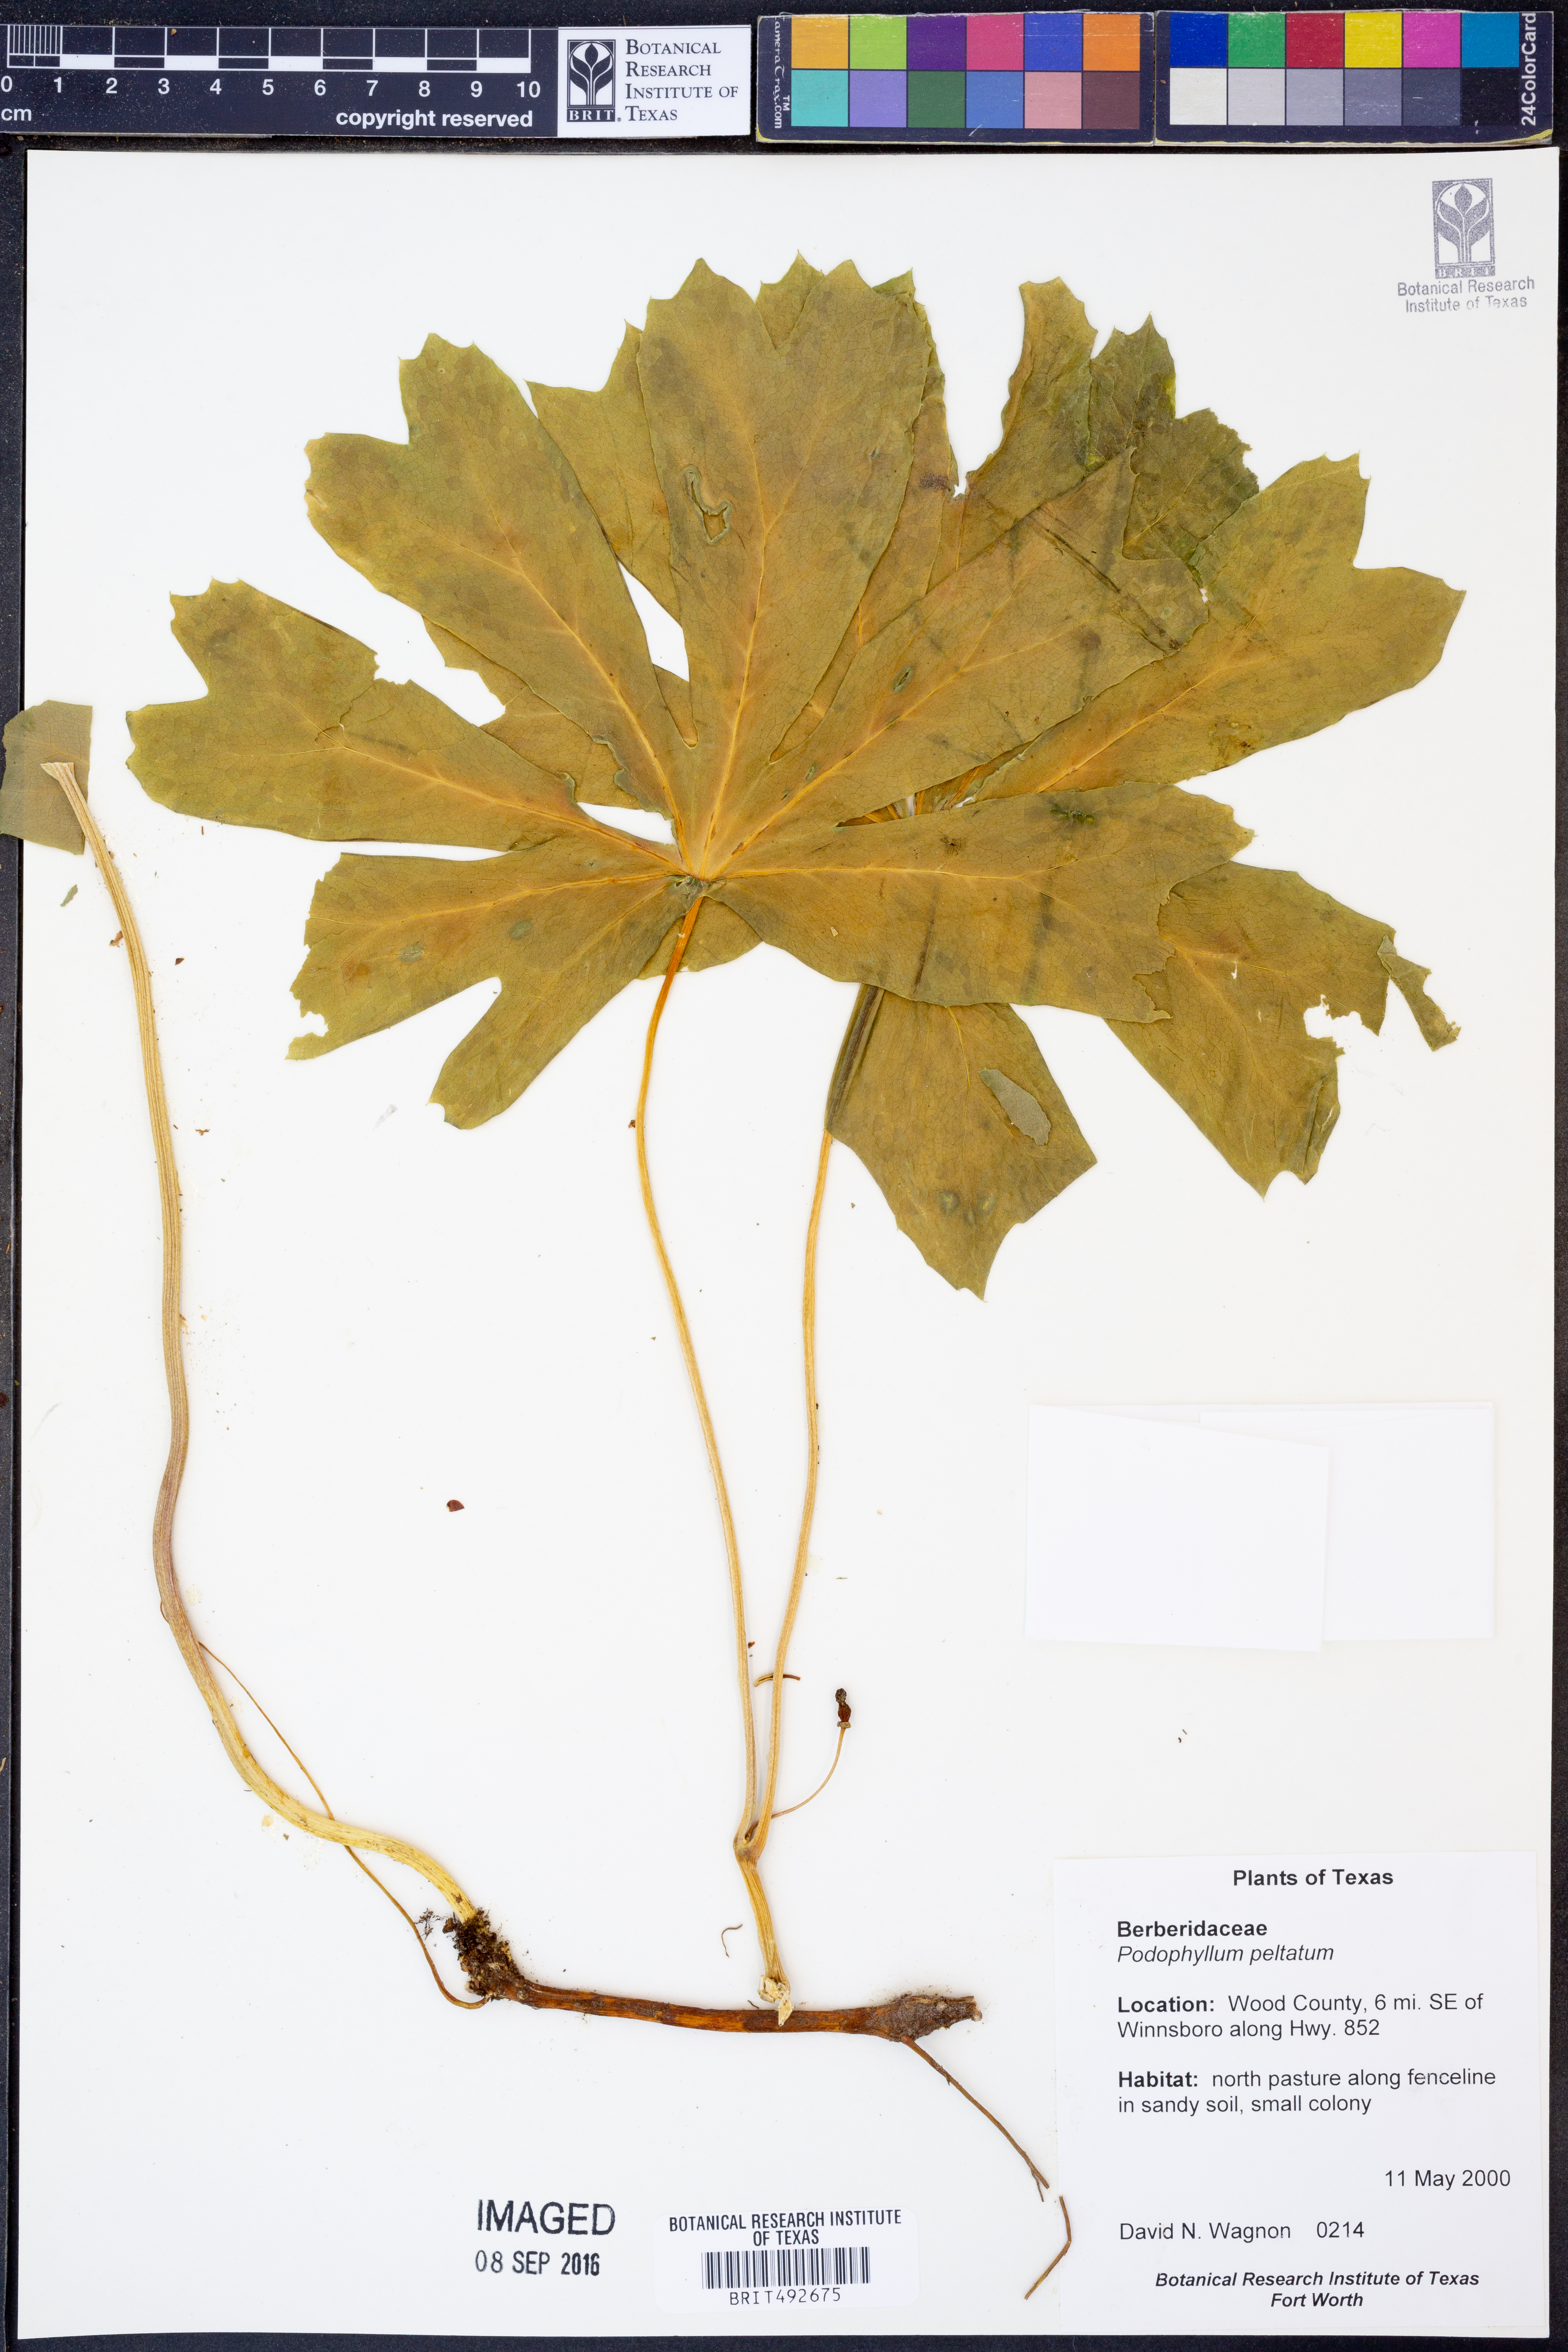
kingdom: Plantae
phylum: Tracheophyta
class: Magnoliopsida
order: Ranunculales
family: Berberidaceae
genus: Podophyllum
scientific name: Podophyllum peltatum
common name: Wild mandrake
